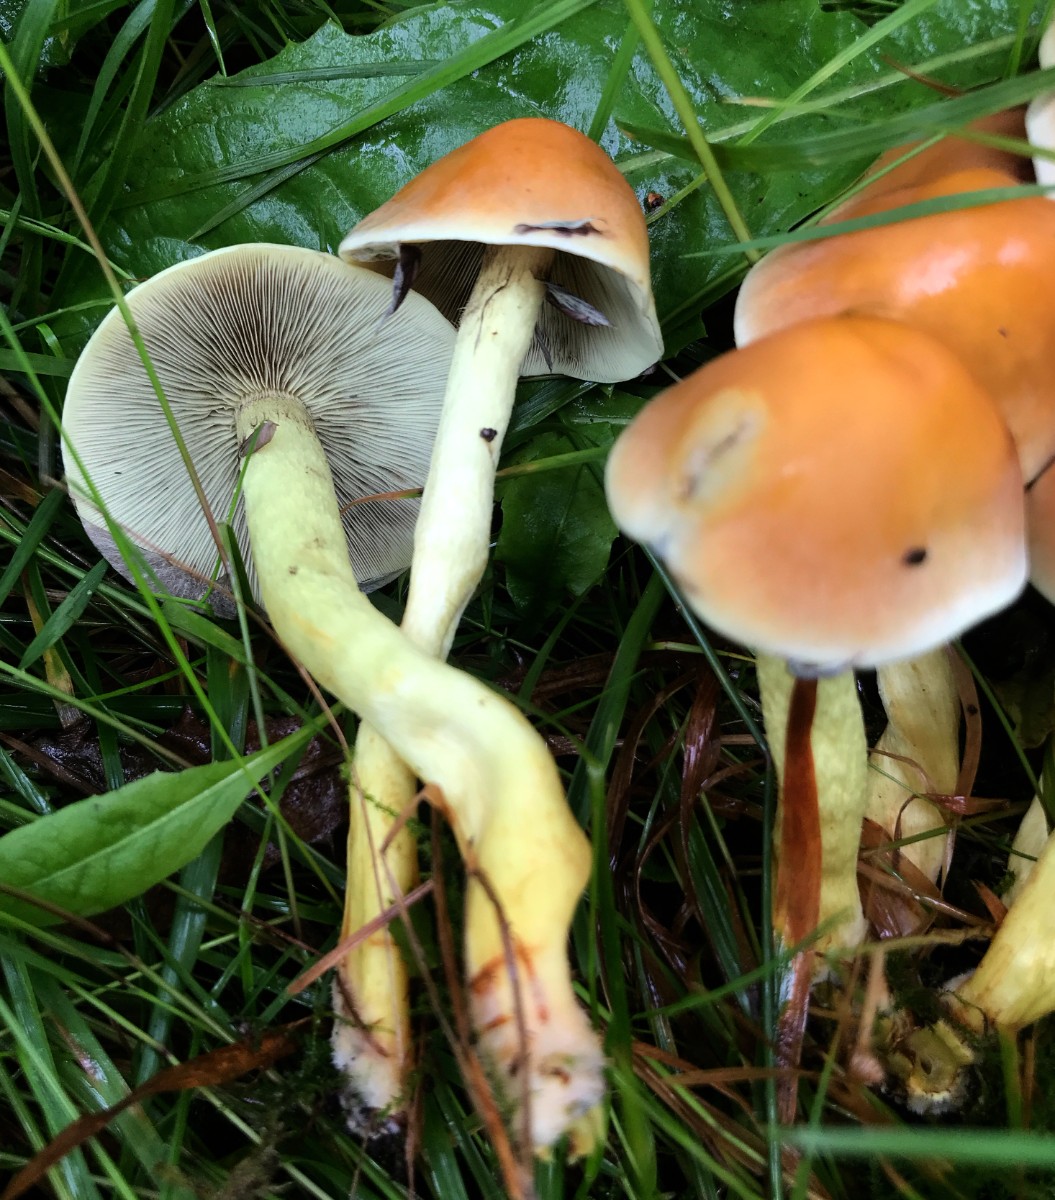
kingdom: Fungi
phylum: Basidiomycota
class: Agaricomycetes
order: Agaricales
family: Strophariaceae
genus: Hypholoma
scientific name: Hypholoma fasciculare
